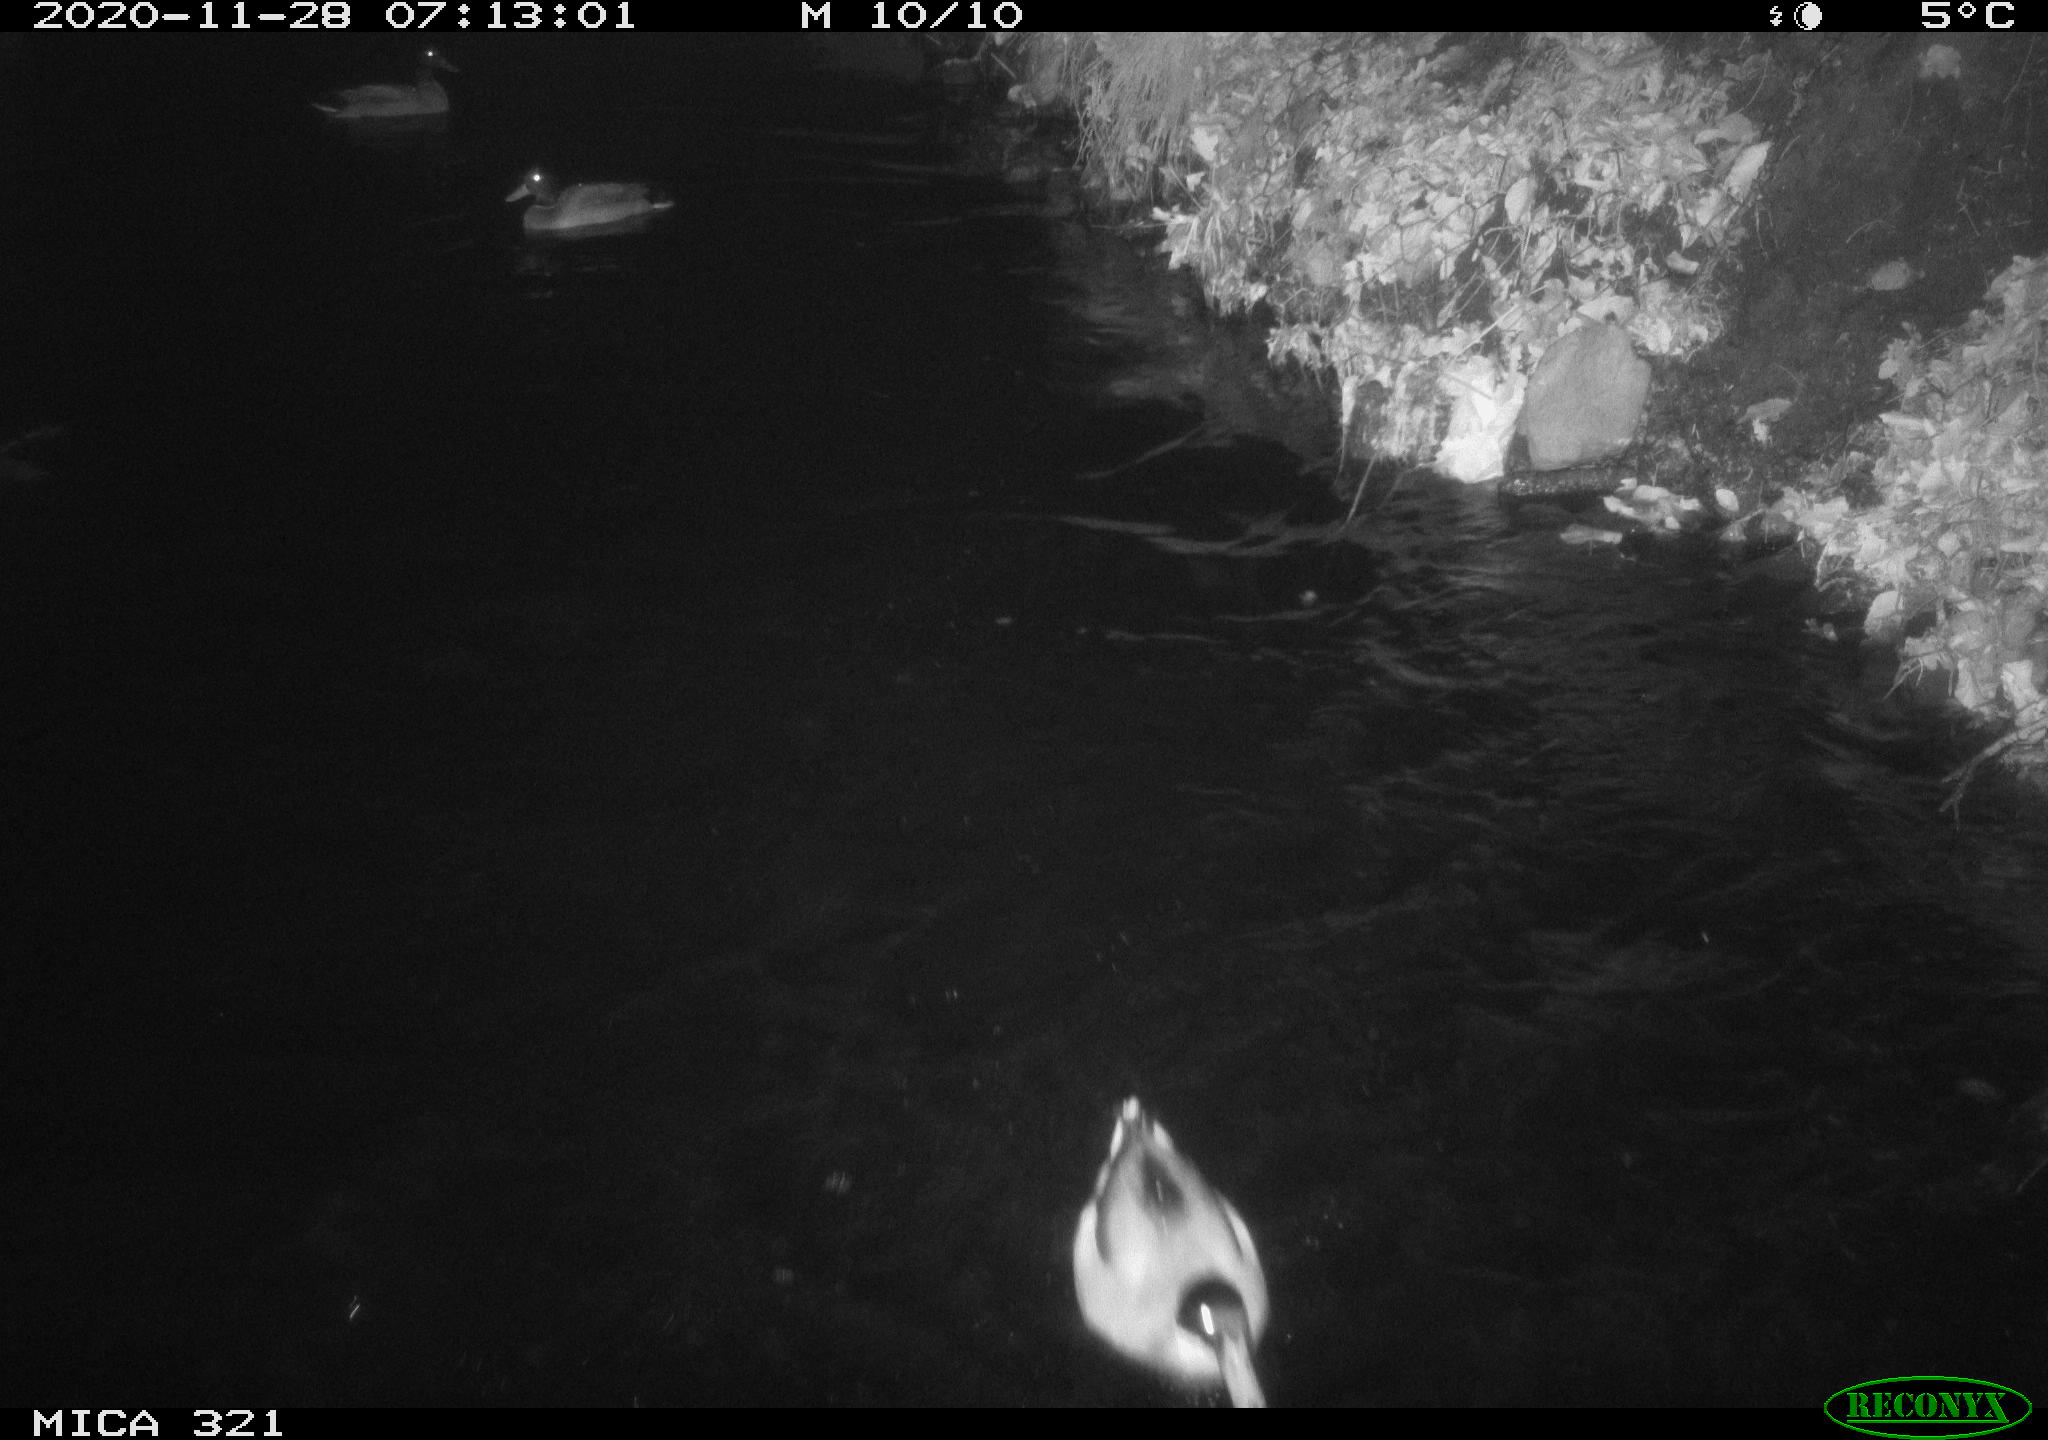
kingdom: Animalia
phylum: Chordata
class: Aves
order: Anseriformes
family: Anatidae
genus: Anas
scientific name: Anas platyrhynchos
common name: Mallard
